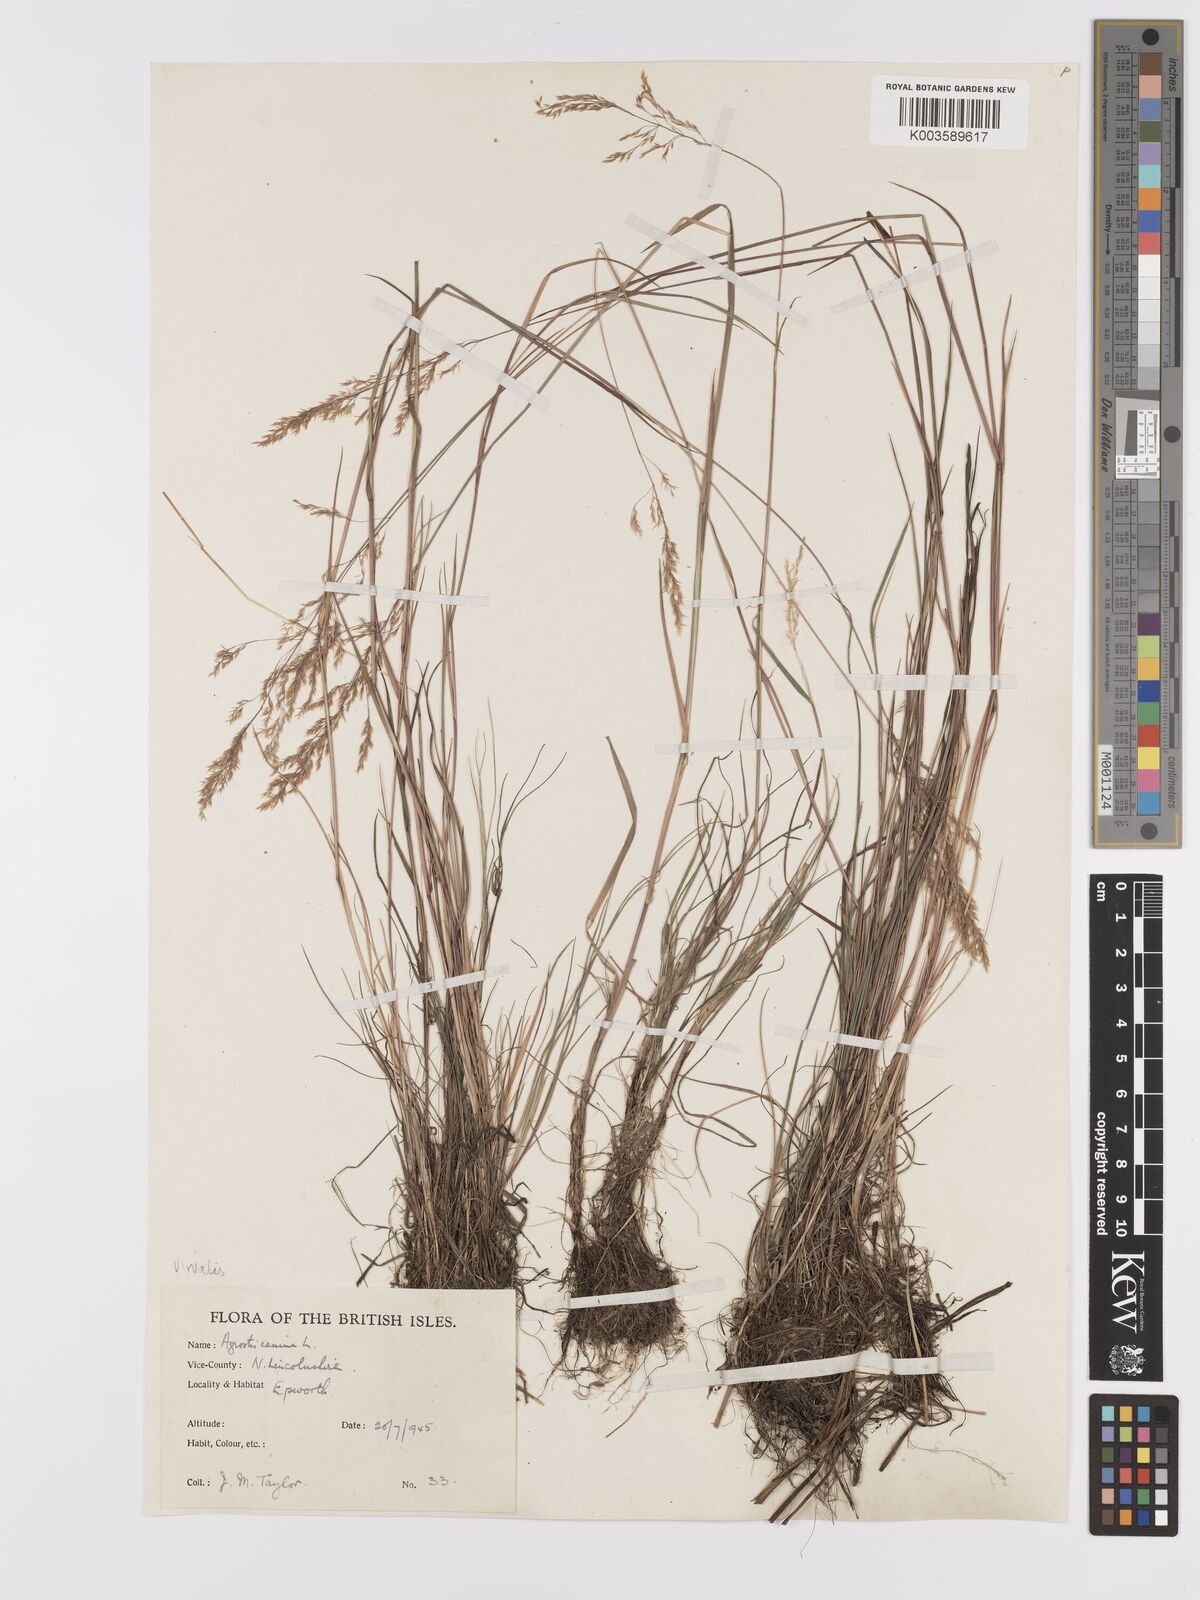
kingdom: Plantae
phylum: Tracheophyta
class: Liliopsida
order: Poales
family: Poaceae
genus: Agrostis
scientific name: Agrostis
